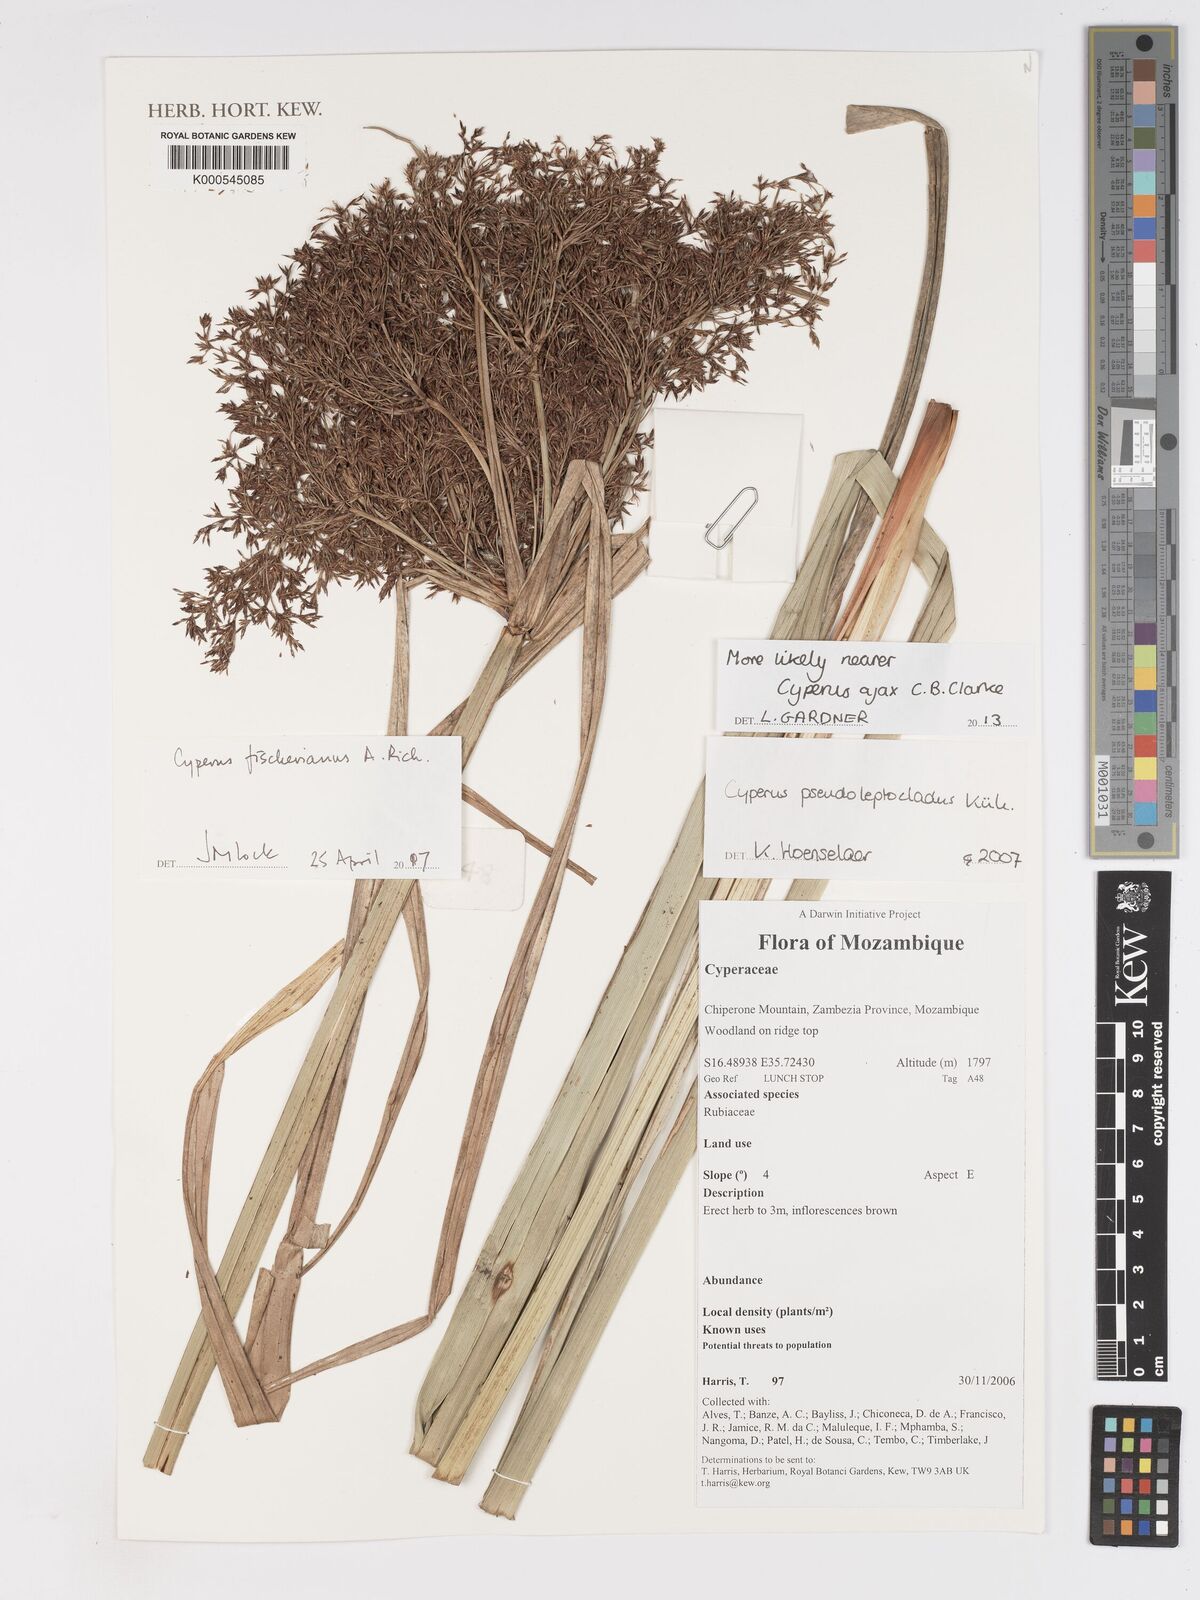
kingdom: Plantae
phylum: Tracheophyta
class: Liliopsida
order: Poales
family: Cyperaceae
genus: Cyperus
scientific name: Cyperus
